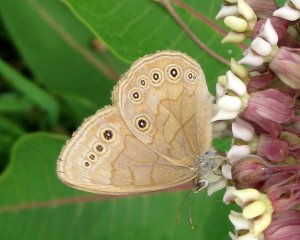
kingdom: Animalia
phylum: Arthropoda
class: Insecta
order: Lepidoptera
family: Nymphalidae
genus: Lethe
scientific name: Lethe eurydice
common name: Eyed Brown
